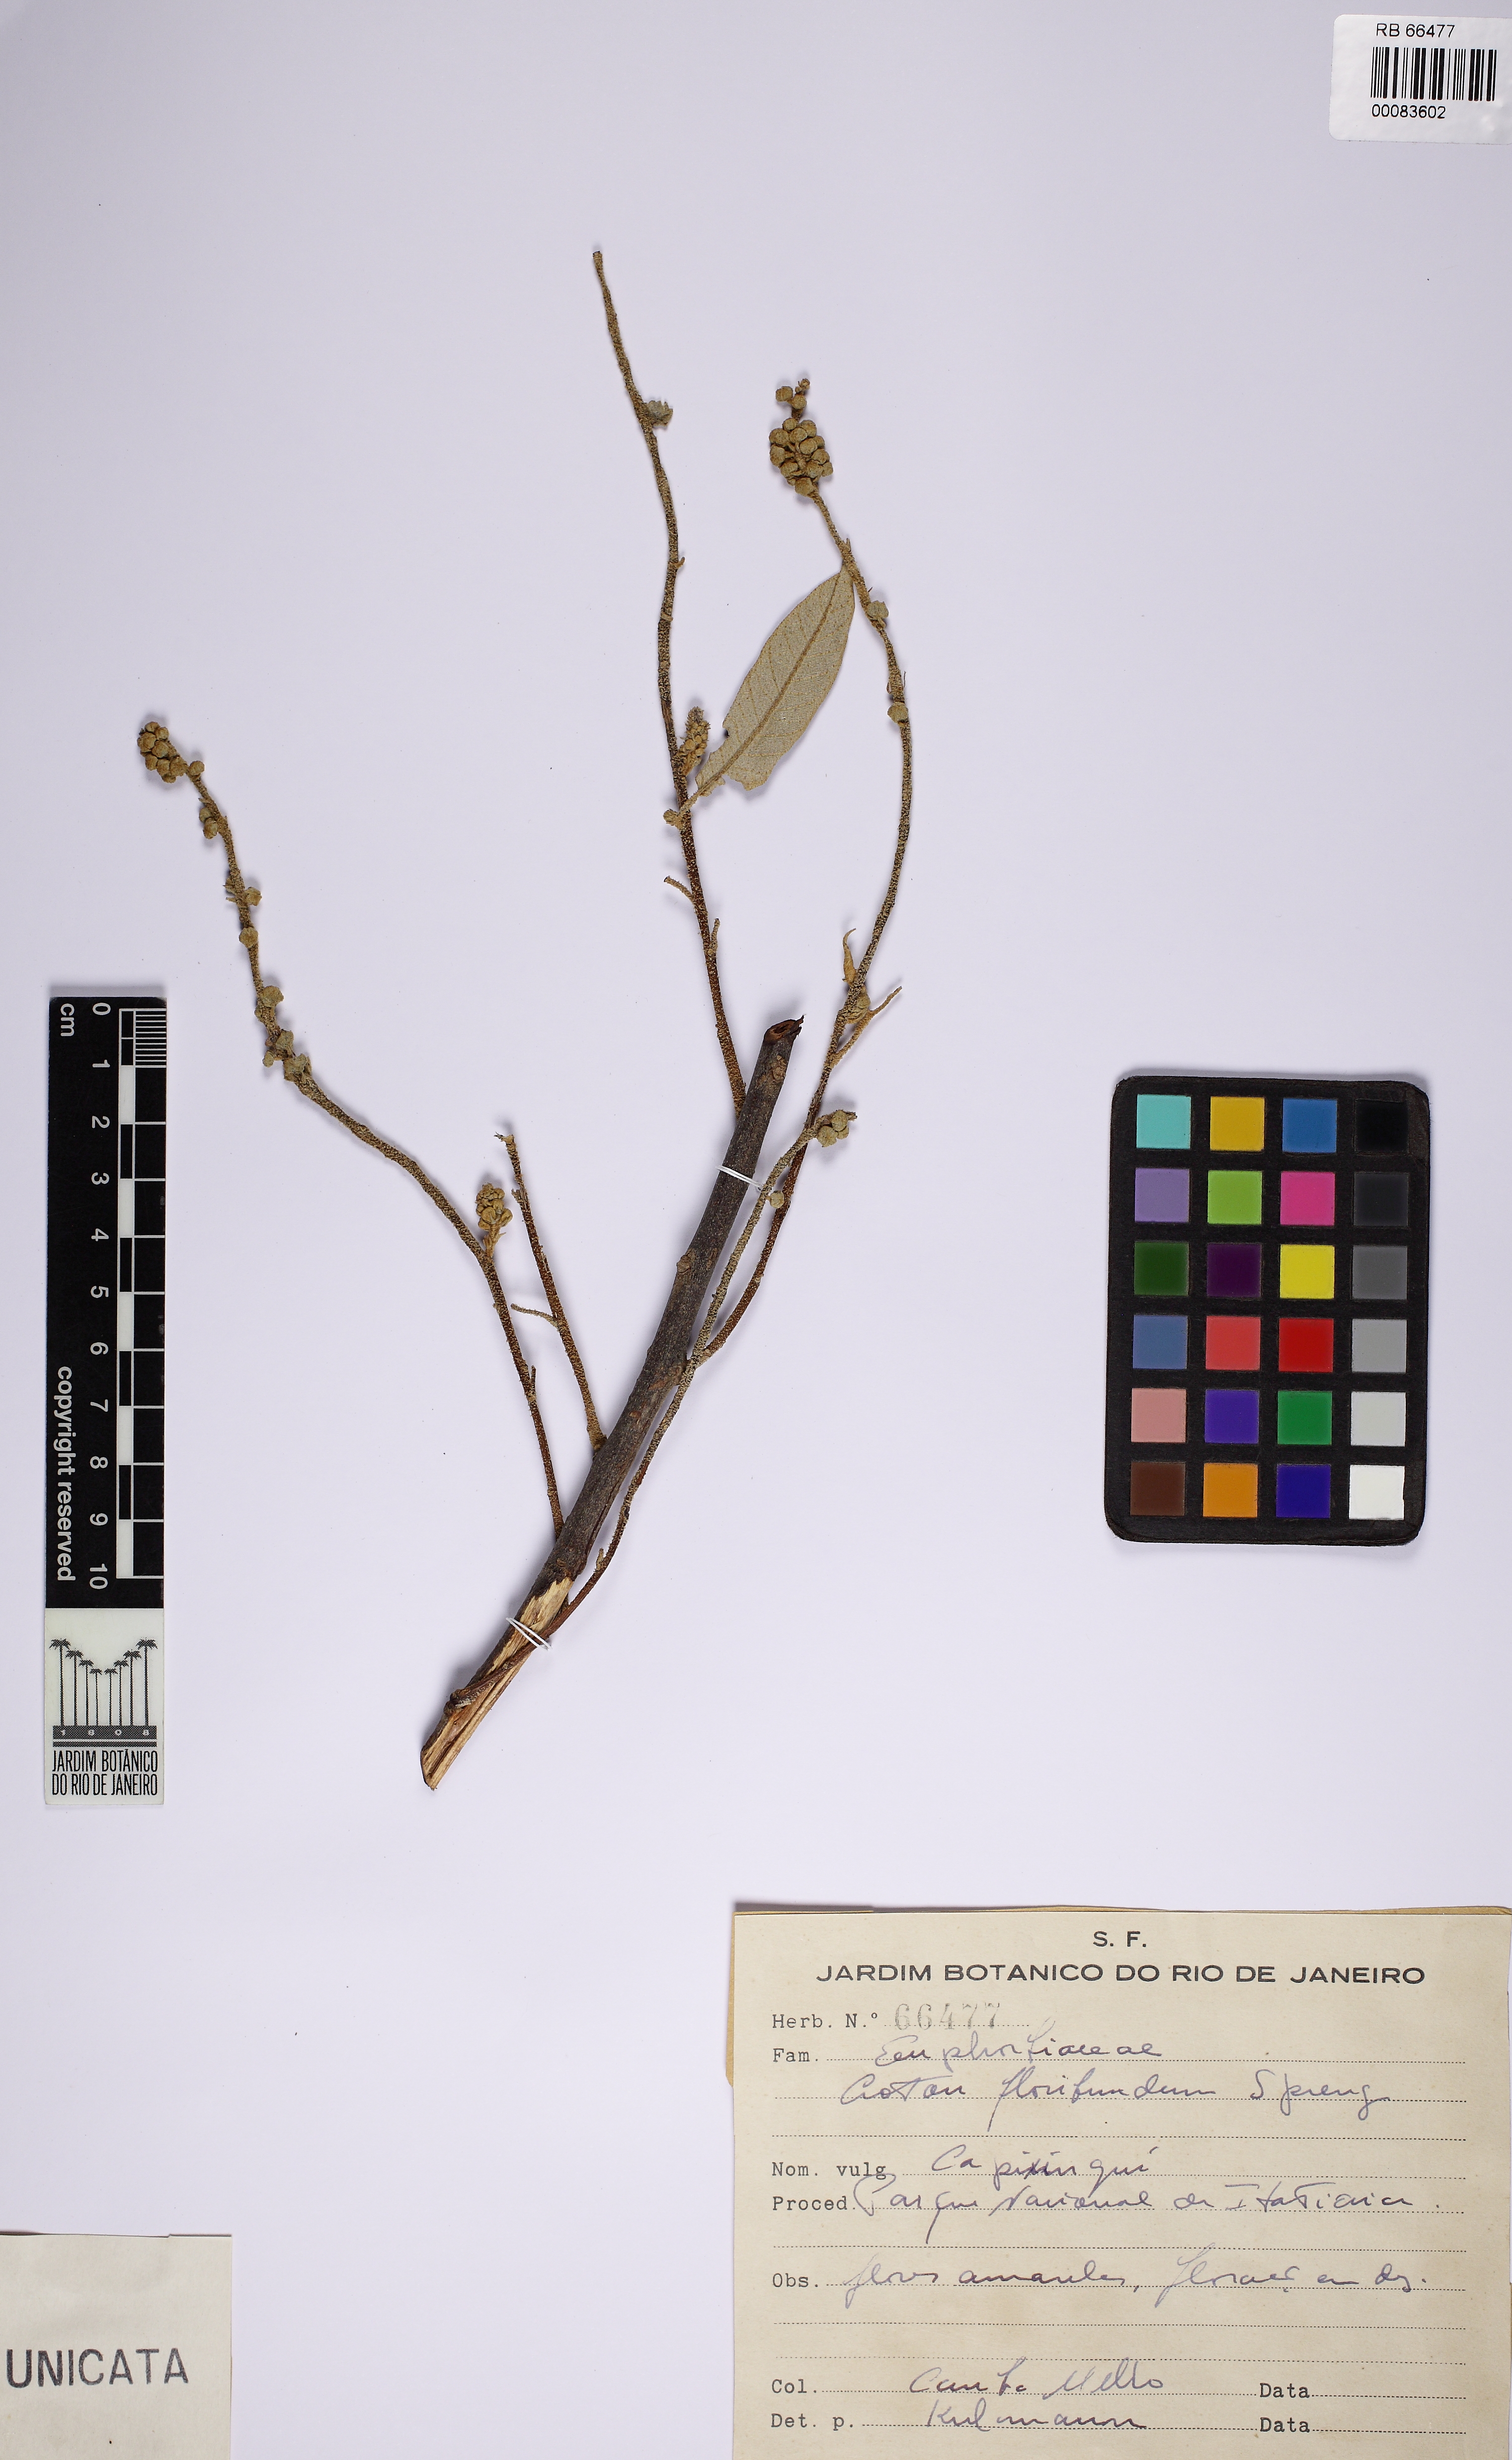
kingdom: Plantae
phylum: Tracheophyta
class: Magnoliopsida
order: Malpighiales
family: Euphorbiaceae
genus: Croton
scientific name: Croton floribundus
